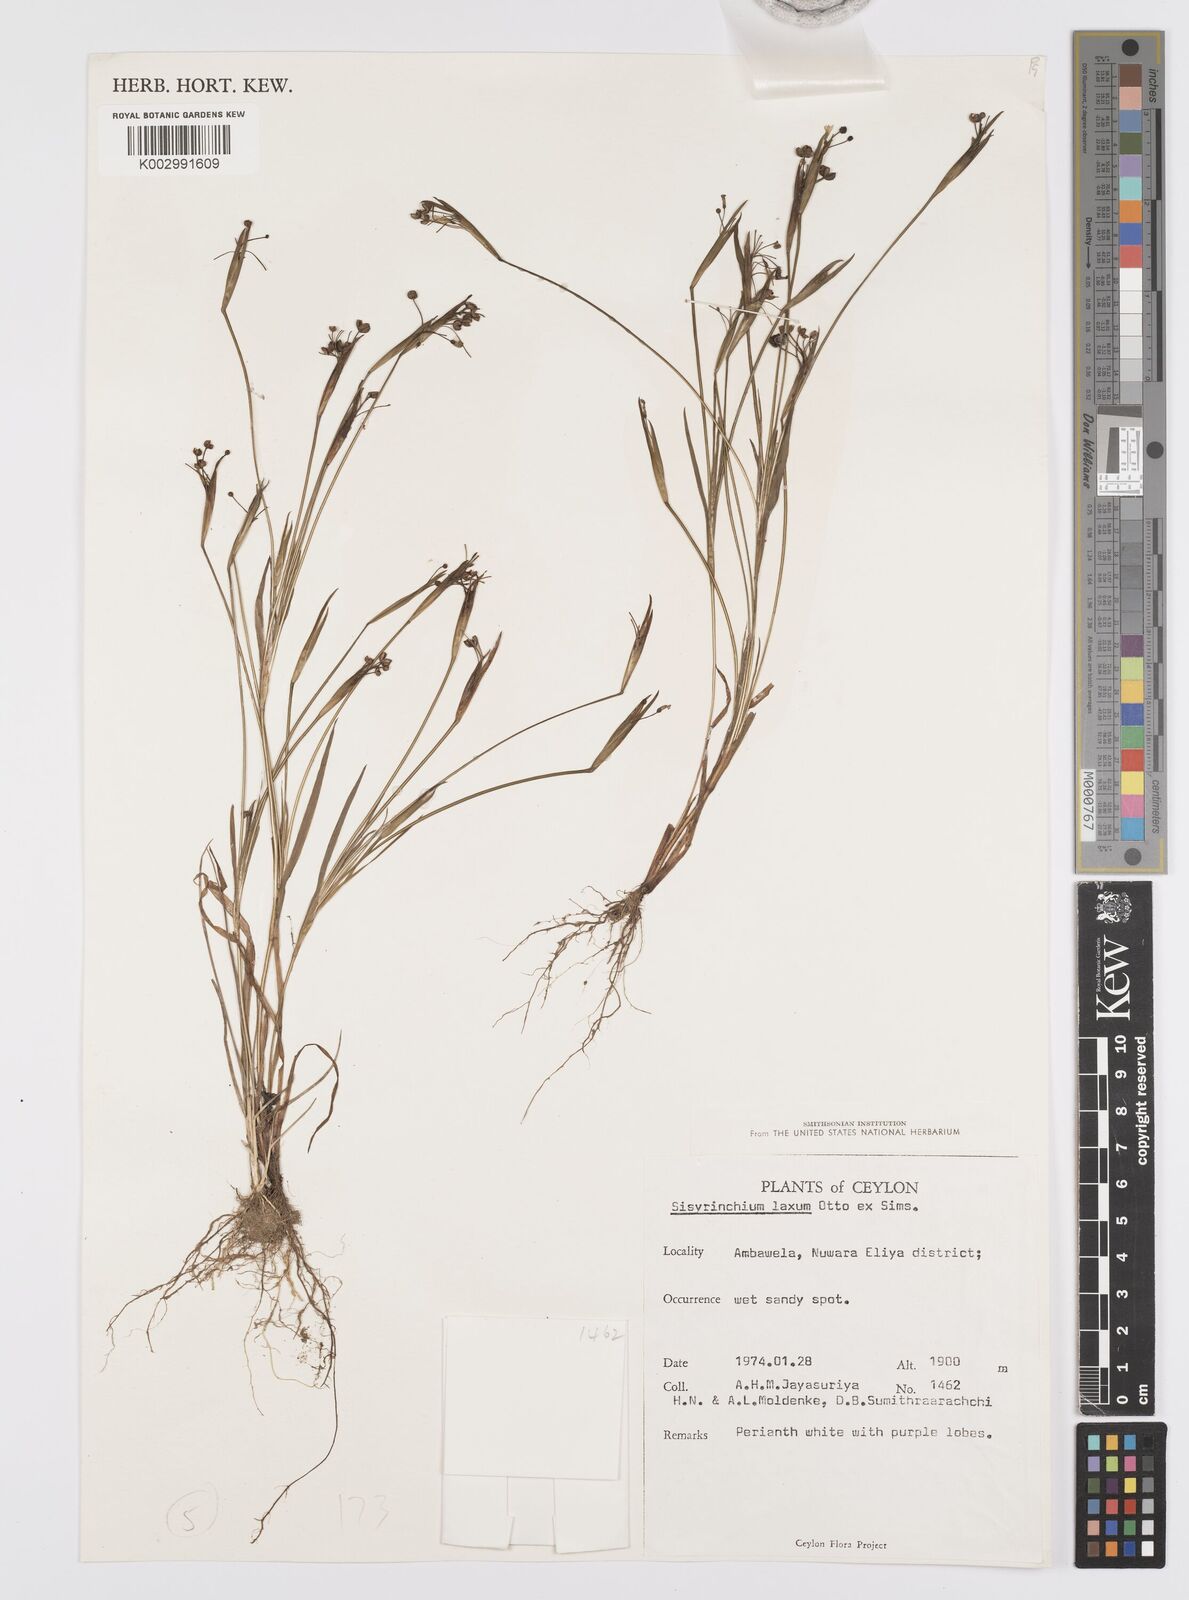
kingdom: Plantae
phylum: Tracheophyta
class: Liliopsida
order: Asparagales
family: Iridaceae
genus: Sisyrinchium
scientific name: Sisyrinchium laxum
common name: Veined yellow-eyed-grass
